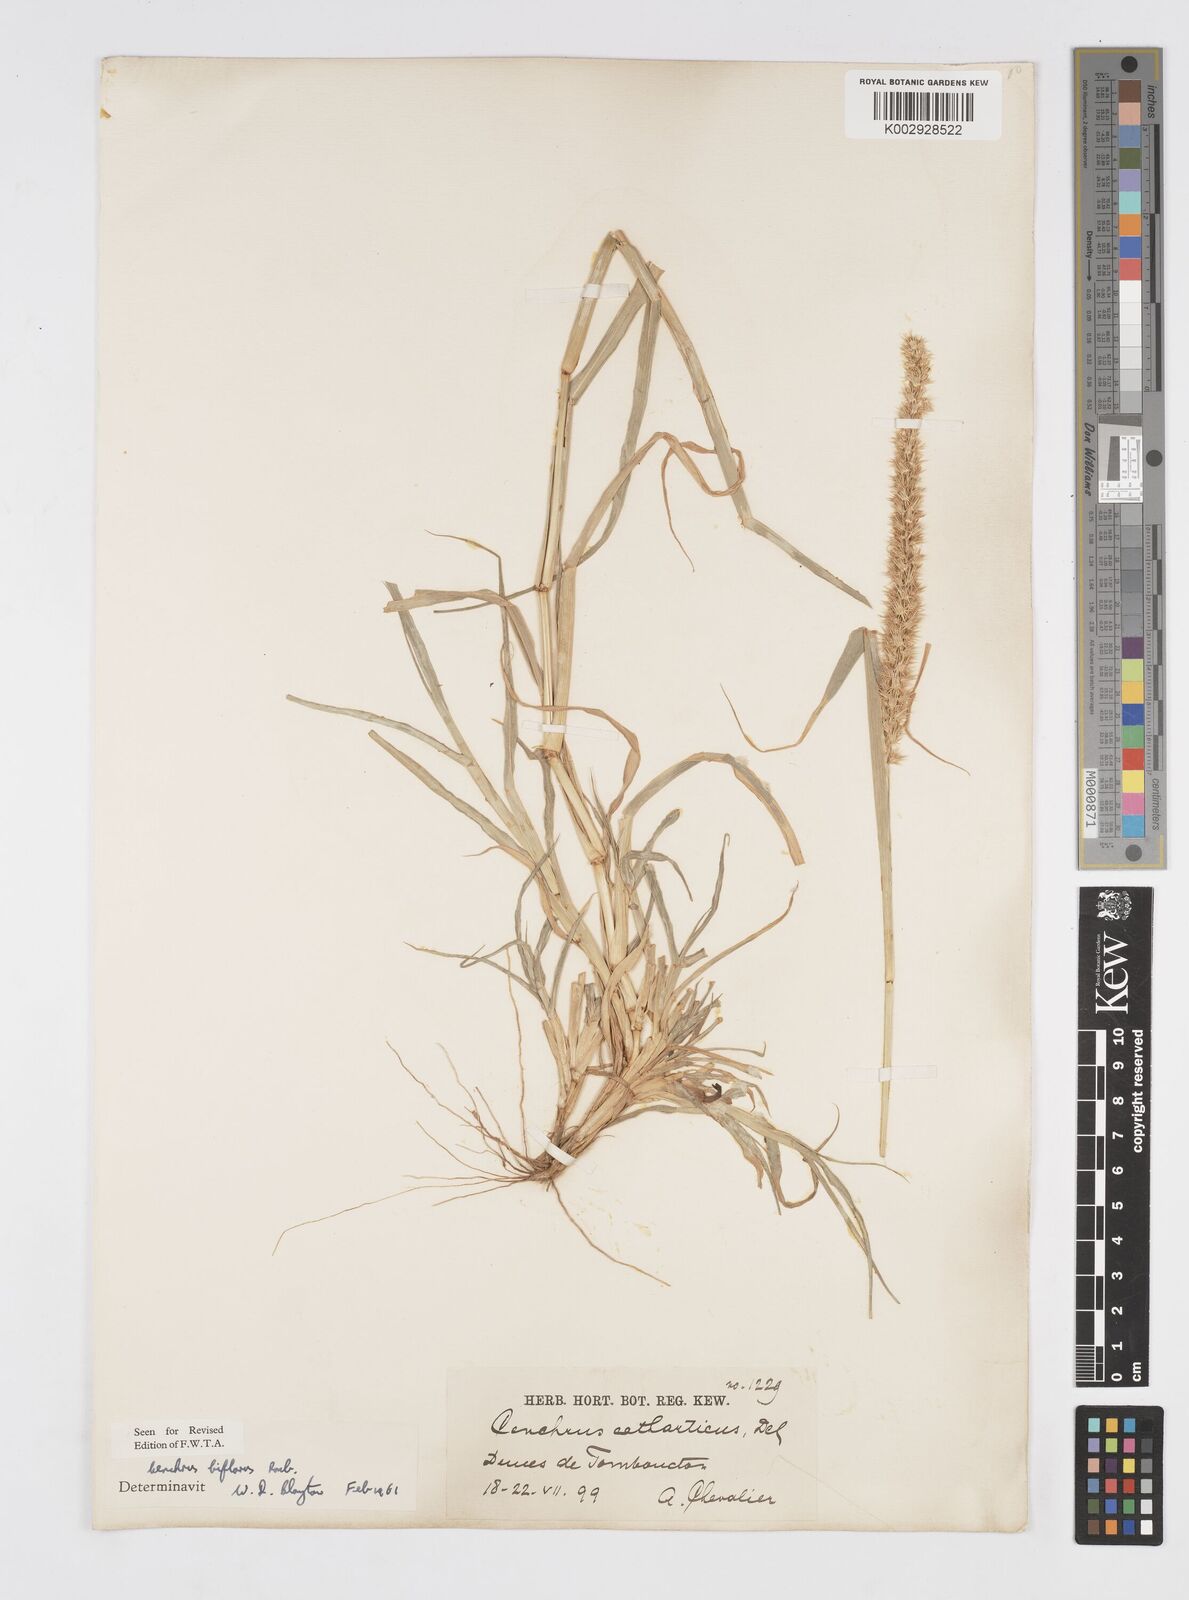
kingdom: Plantae
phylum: Tracheophyta
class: Liliopsida
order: Poales
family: Poaceae
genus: Cenchrus
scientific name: Cenchrus biflorus
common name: Indian sandbur
